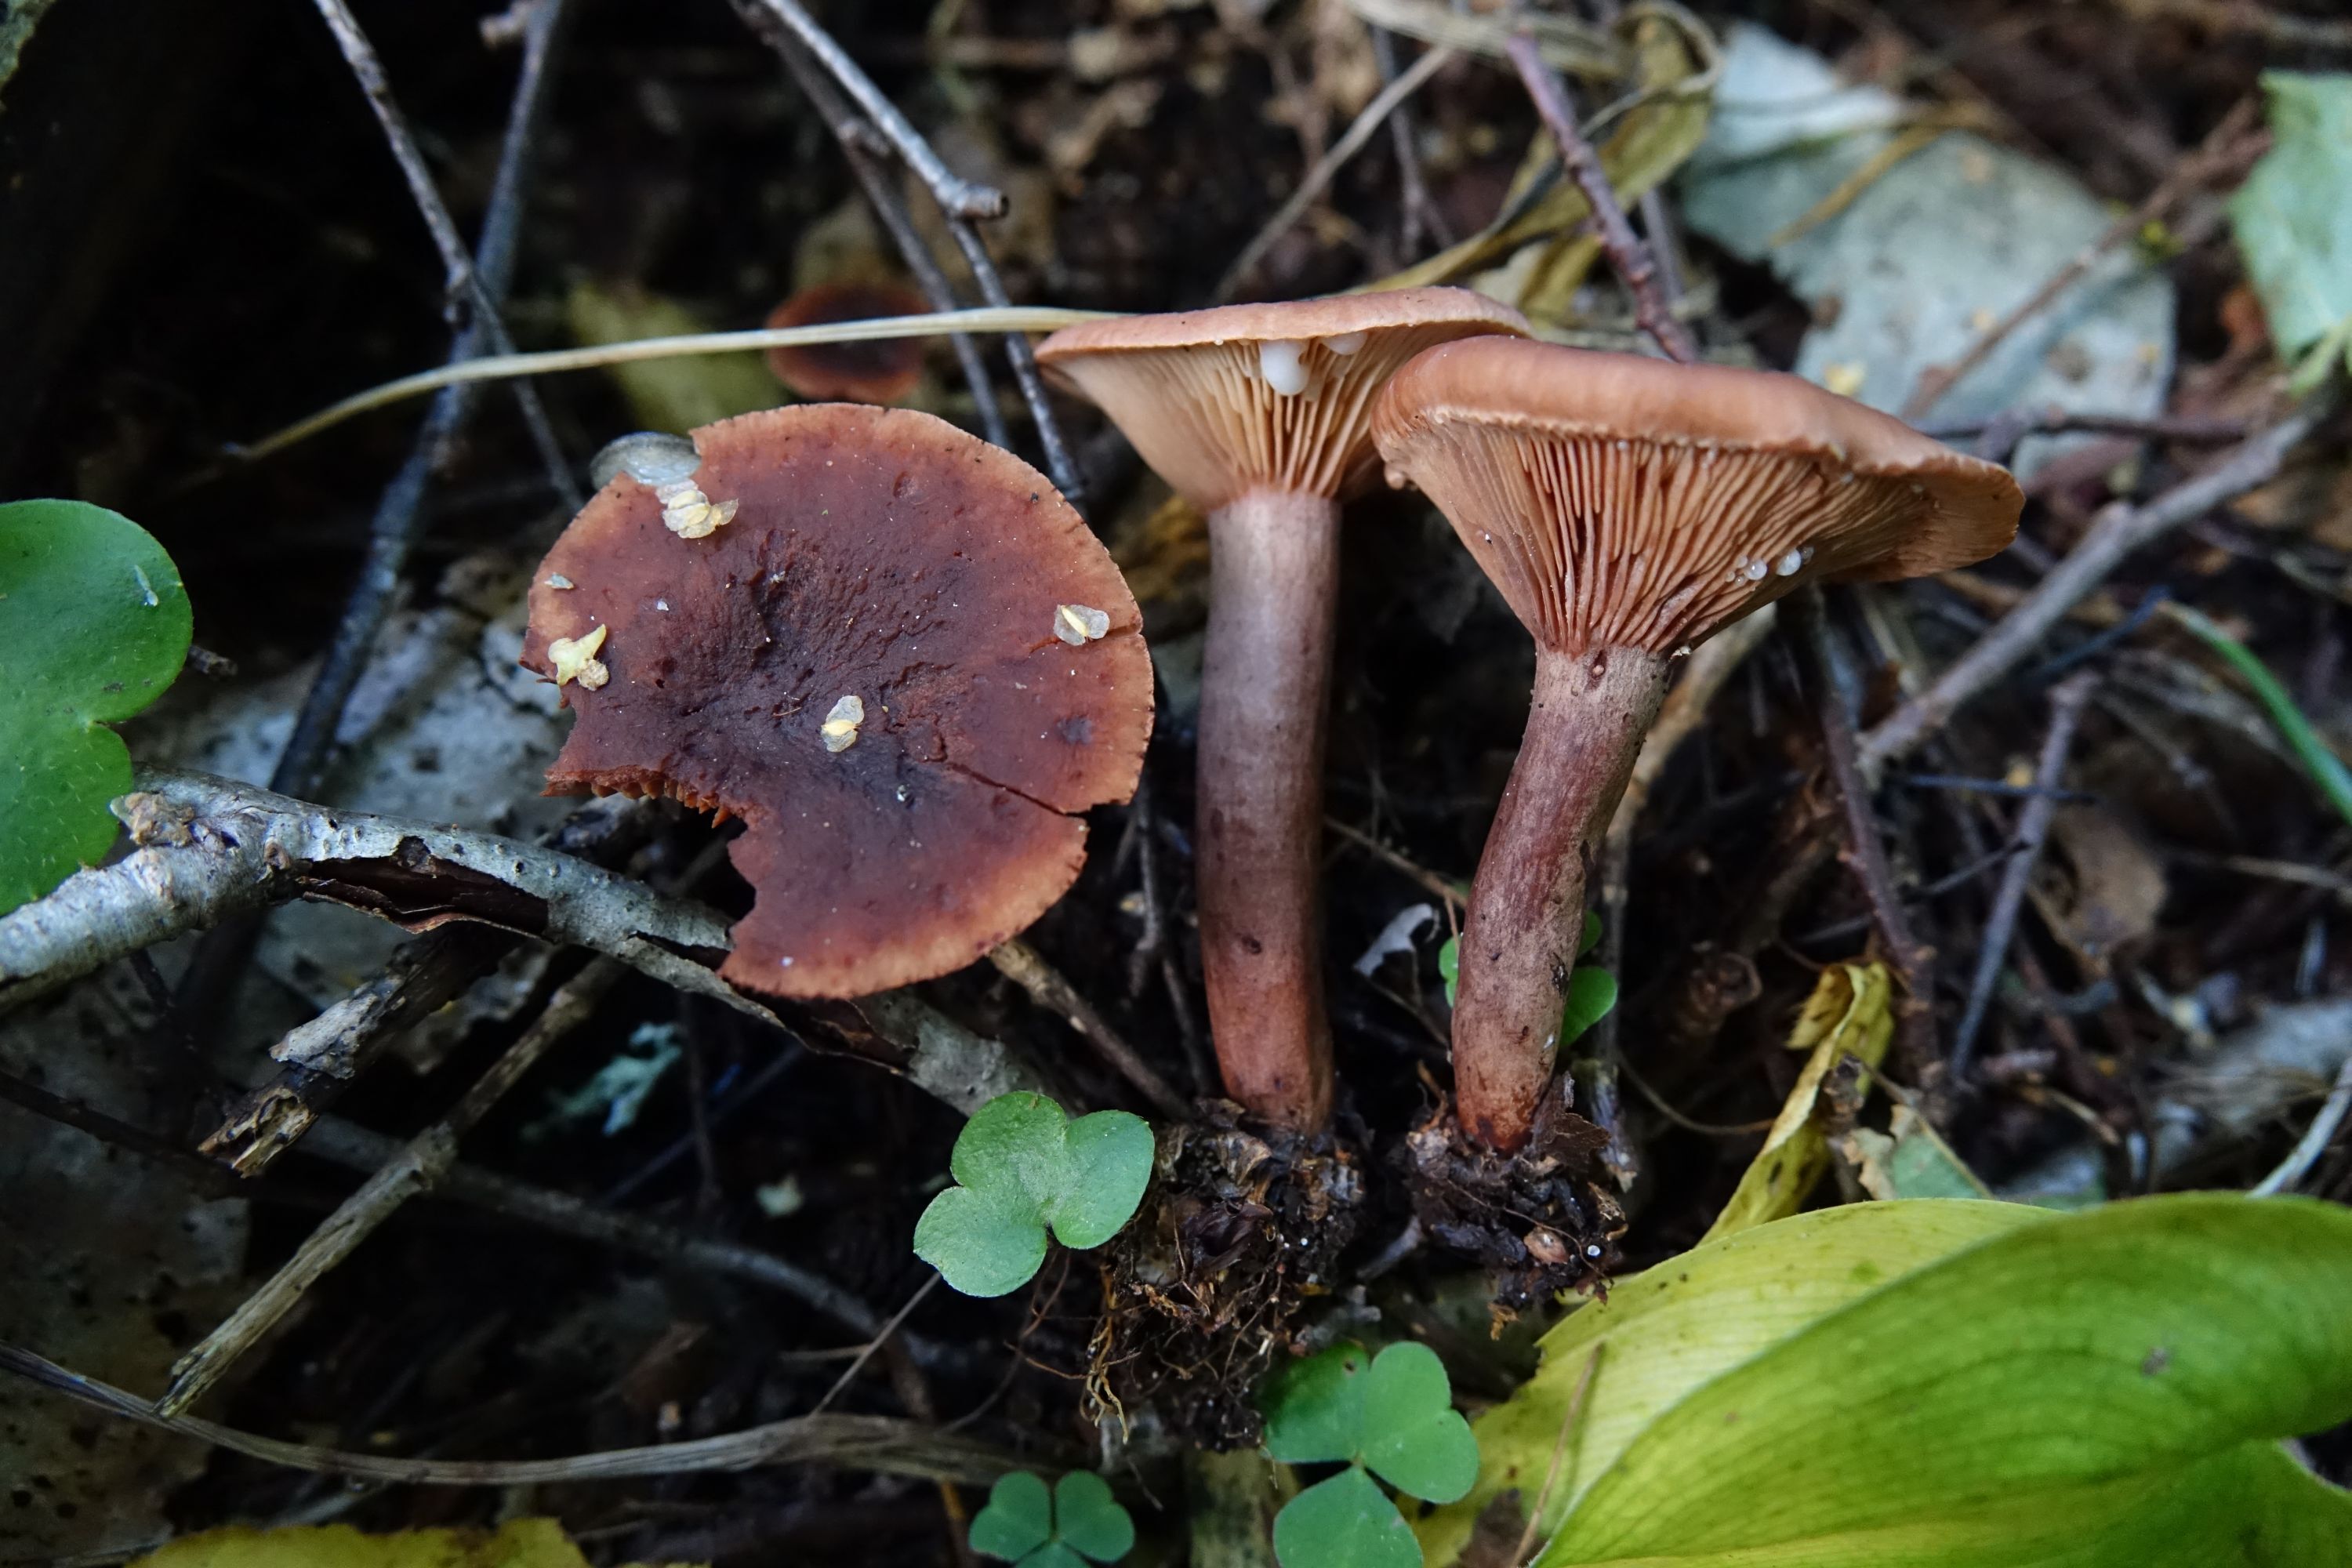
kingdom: Fungi
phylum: Basidiomycota
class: Agaricomycetes
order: Russulales
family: Russulaceae
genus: Lactarius
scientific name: Lactarius camphoratus
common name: Curry milkcap
